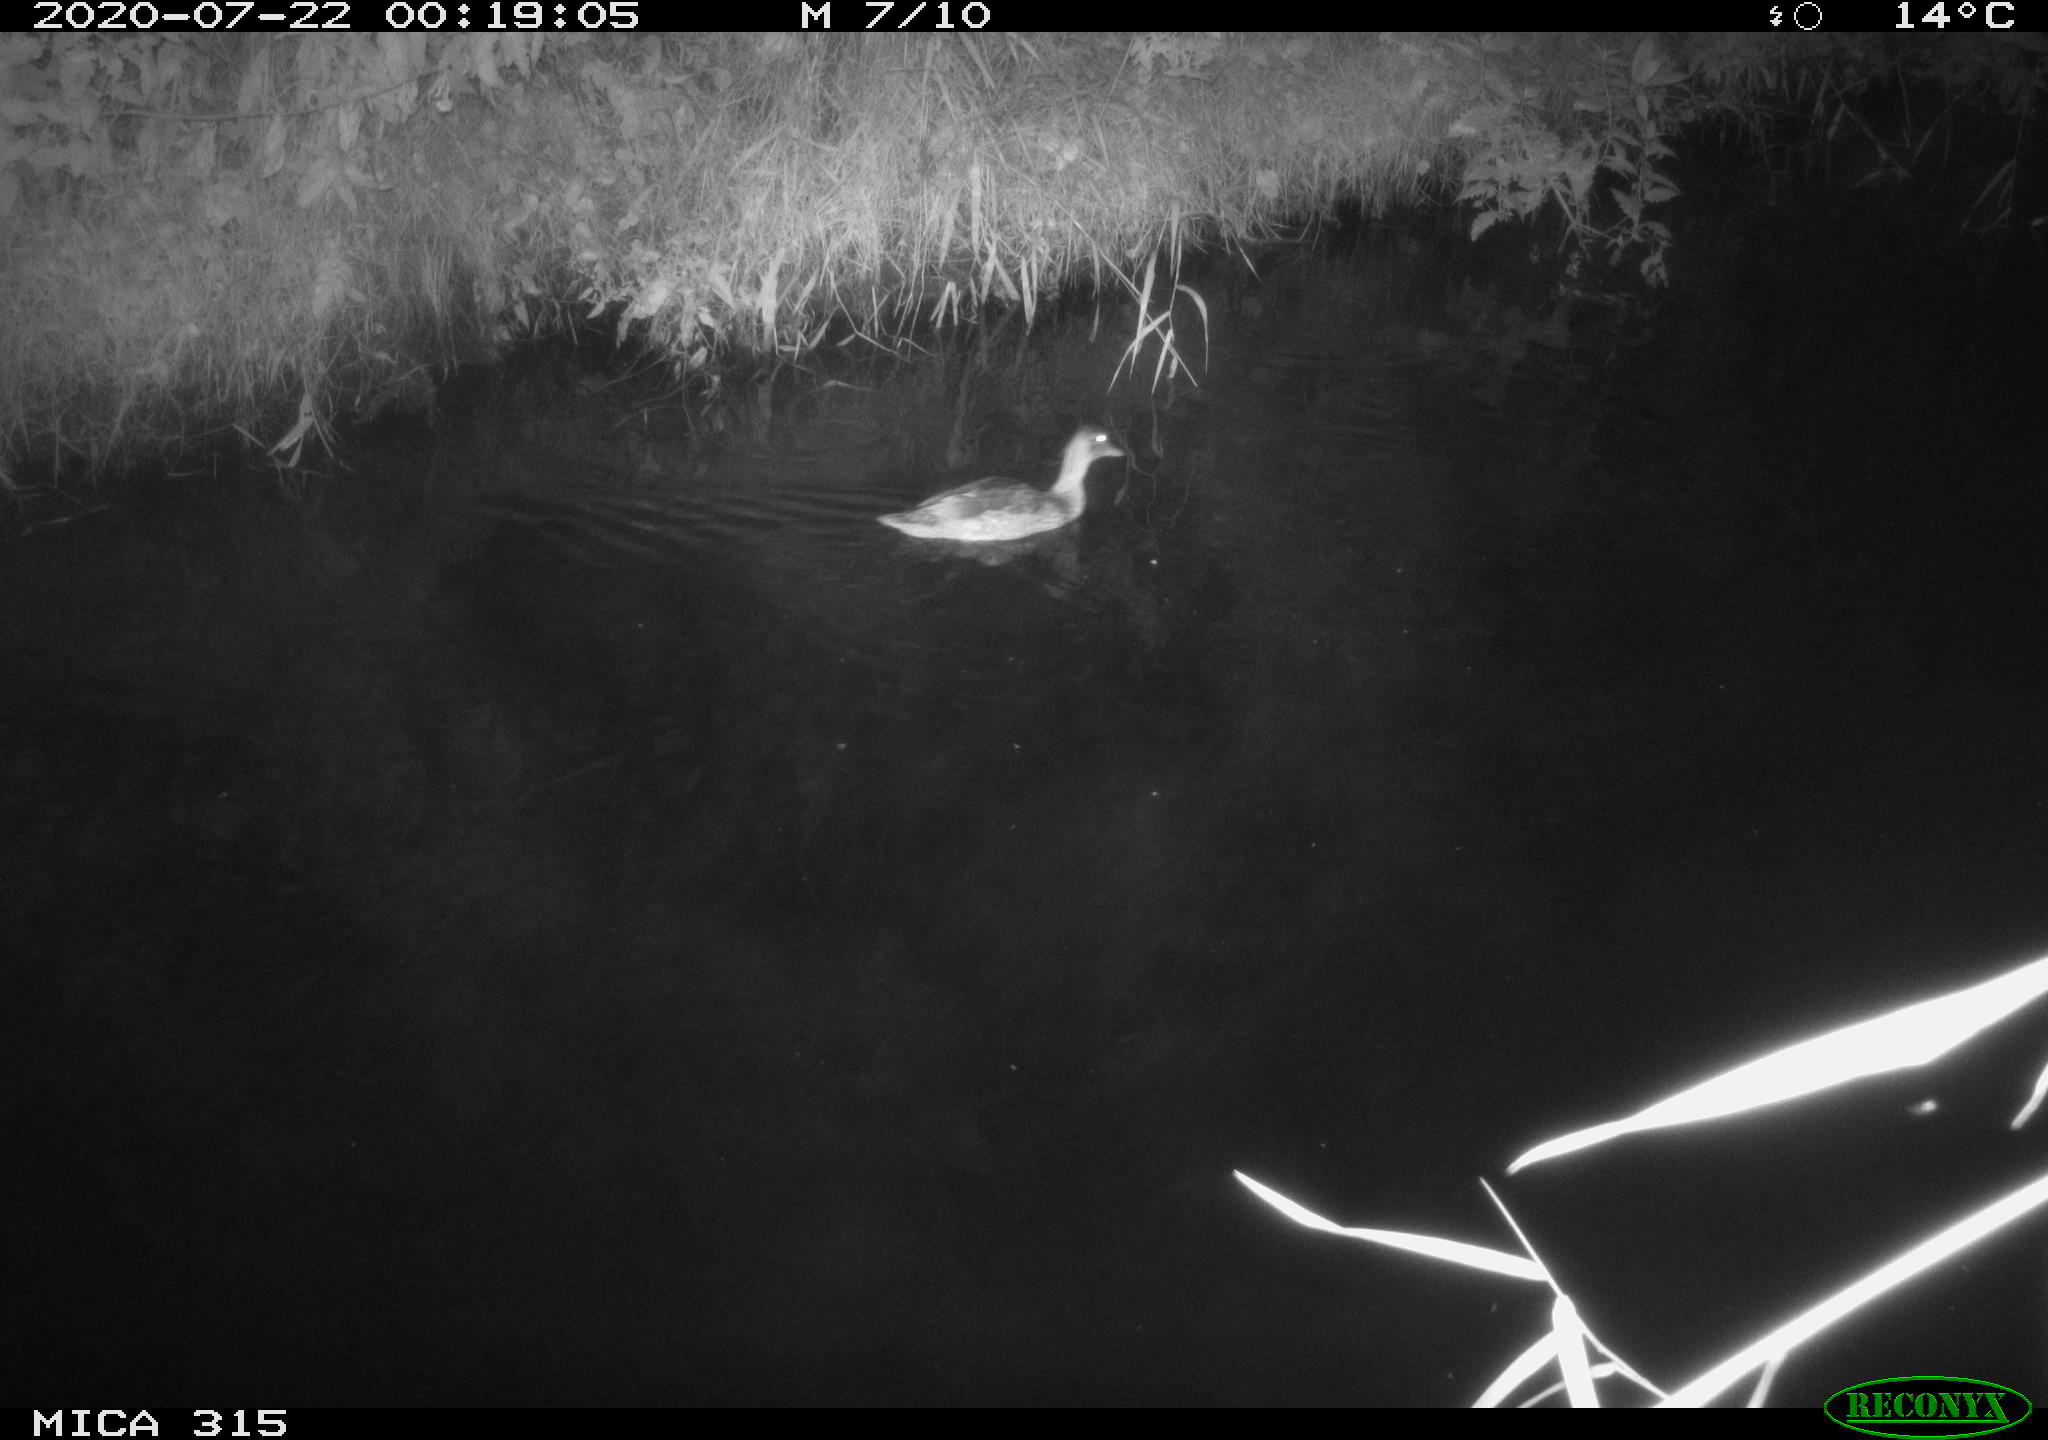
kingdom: Animalia
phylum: Chordata
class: Aves
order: Anseriformes
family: Anatidae
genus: Anas
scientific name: Anas platyrhynchos
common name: Mallard
